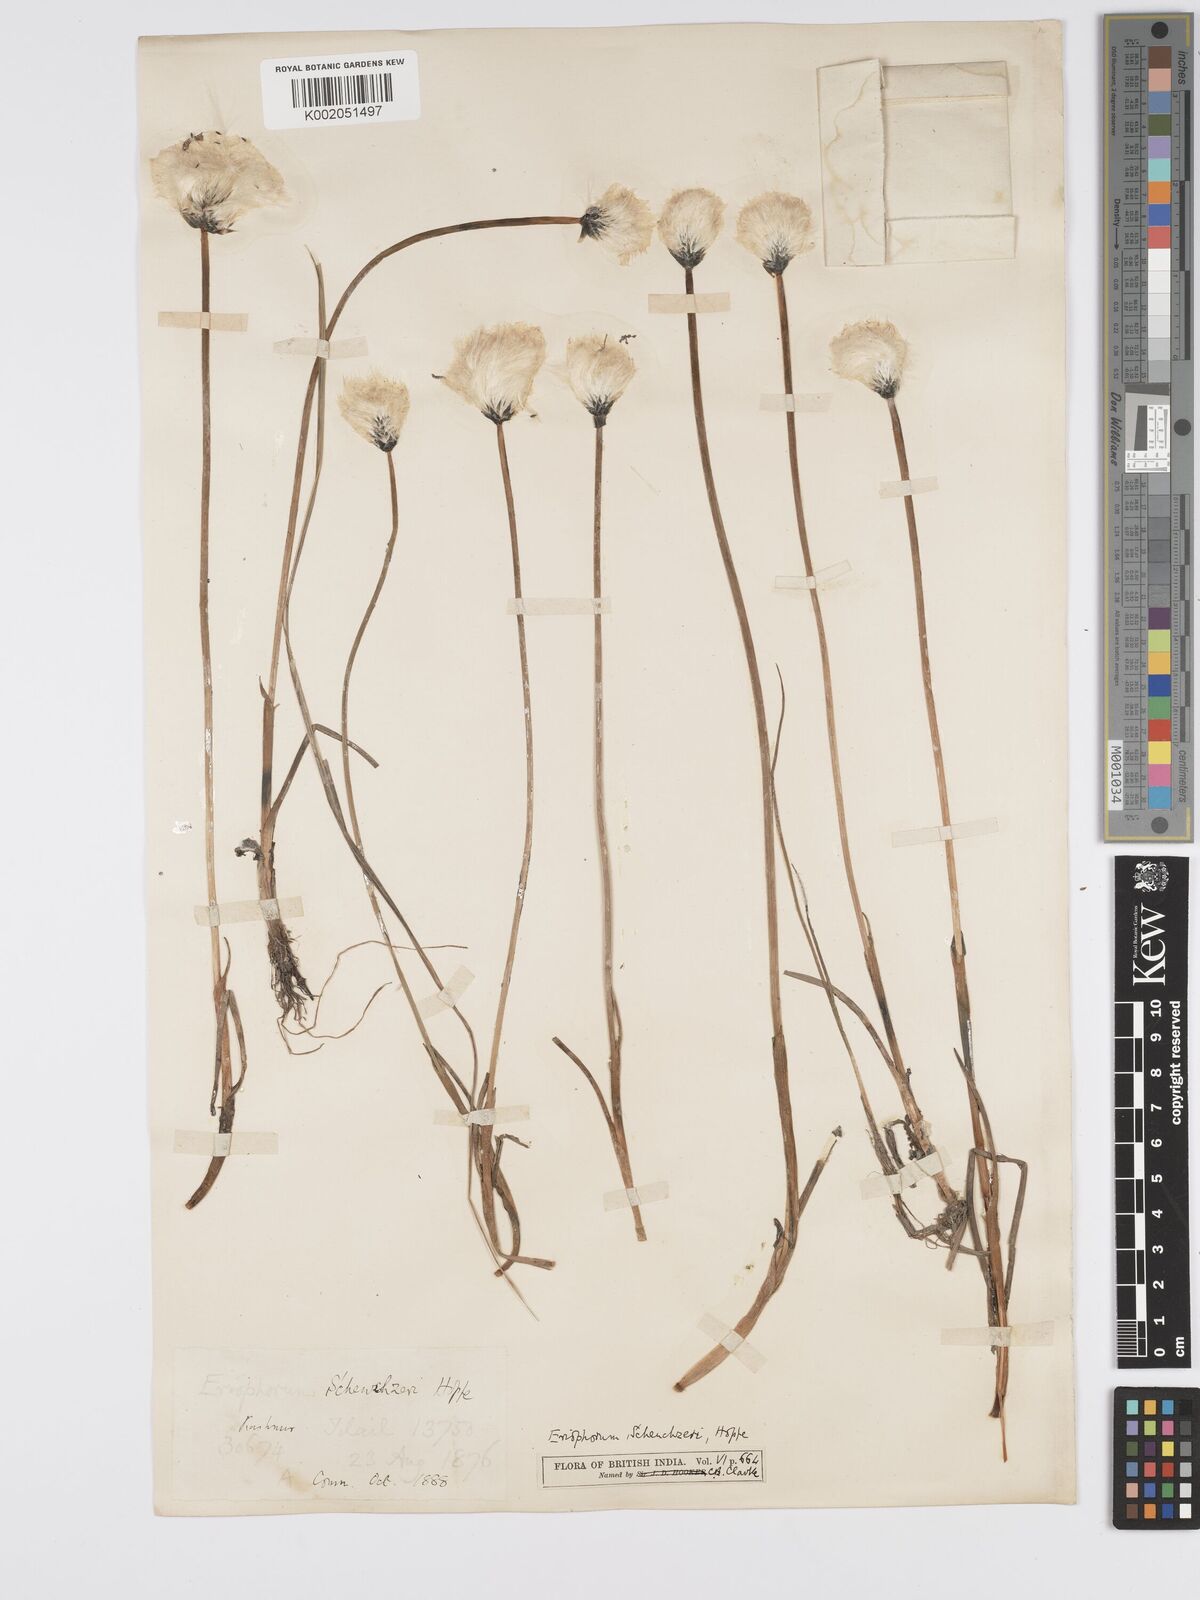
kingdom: Plantae
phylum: Tracheophyta
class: Liliopsida
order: Poales
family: Cyperaceae
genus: Eriophorum
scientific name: Eriophorum scheuchzeri
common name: Scheuchzer's cottongrass
